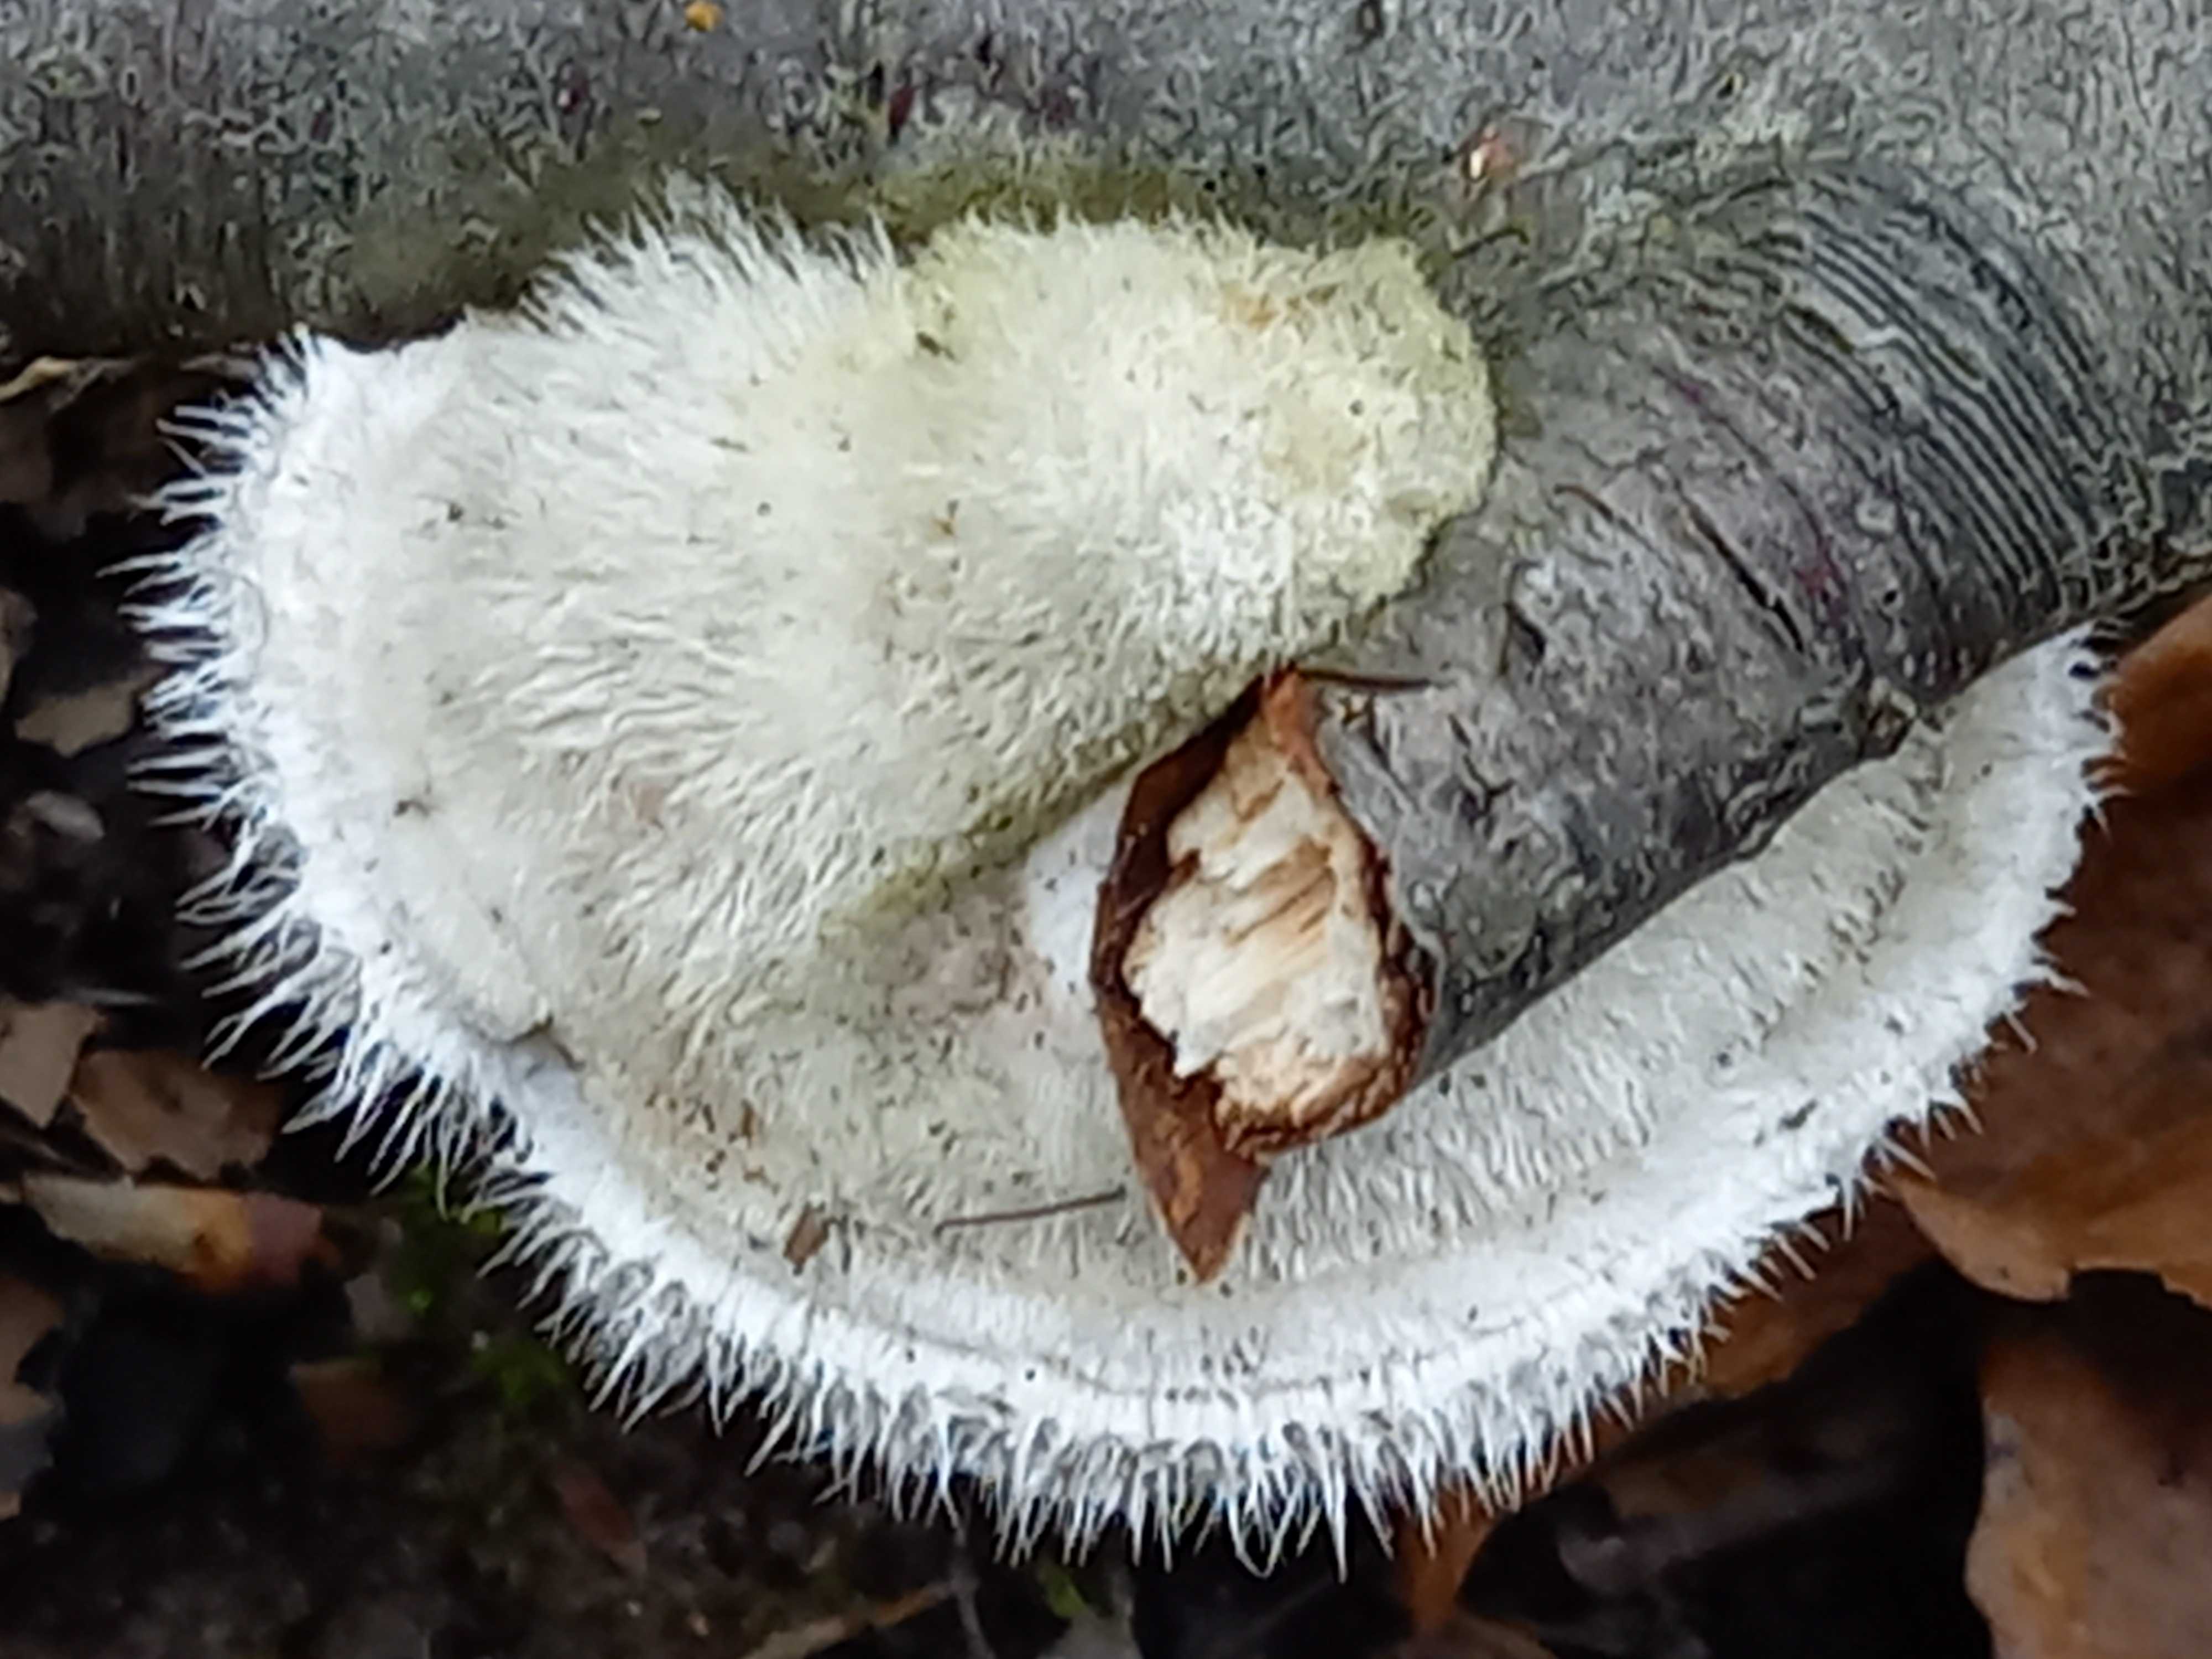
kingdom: Fungi
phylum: Basidiomycota
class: Agaricomycetes
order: Polyporales
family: Polyporaceae
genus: Trametes
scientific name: Trametes hirsuta
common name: håret læderporesvamp
